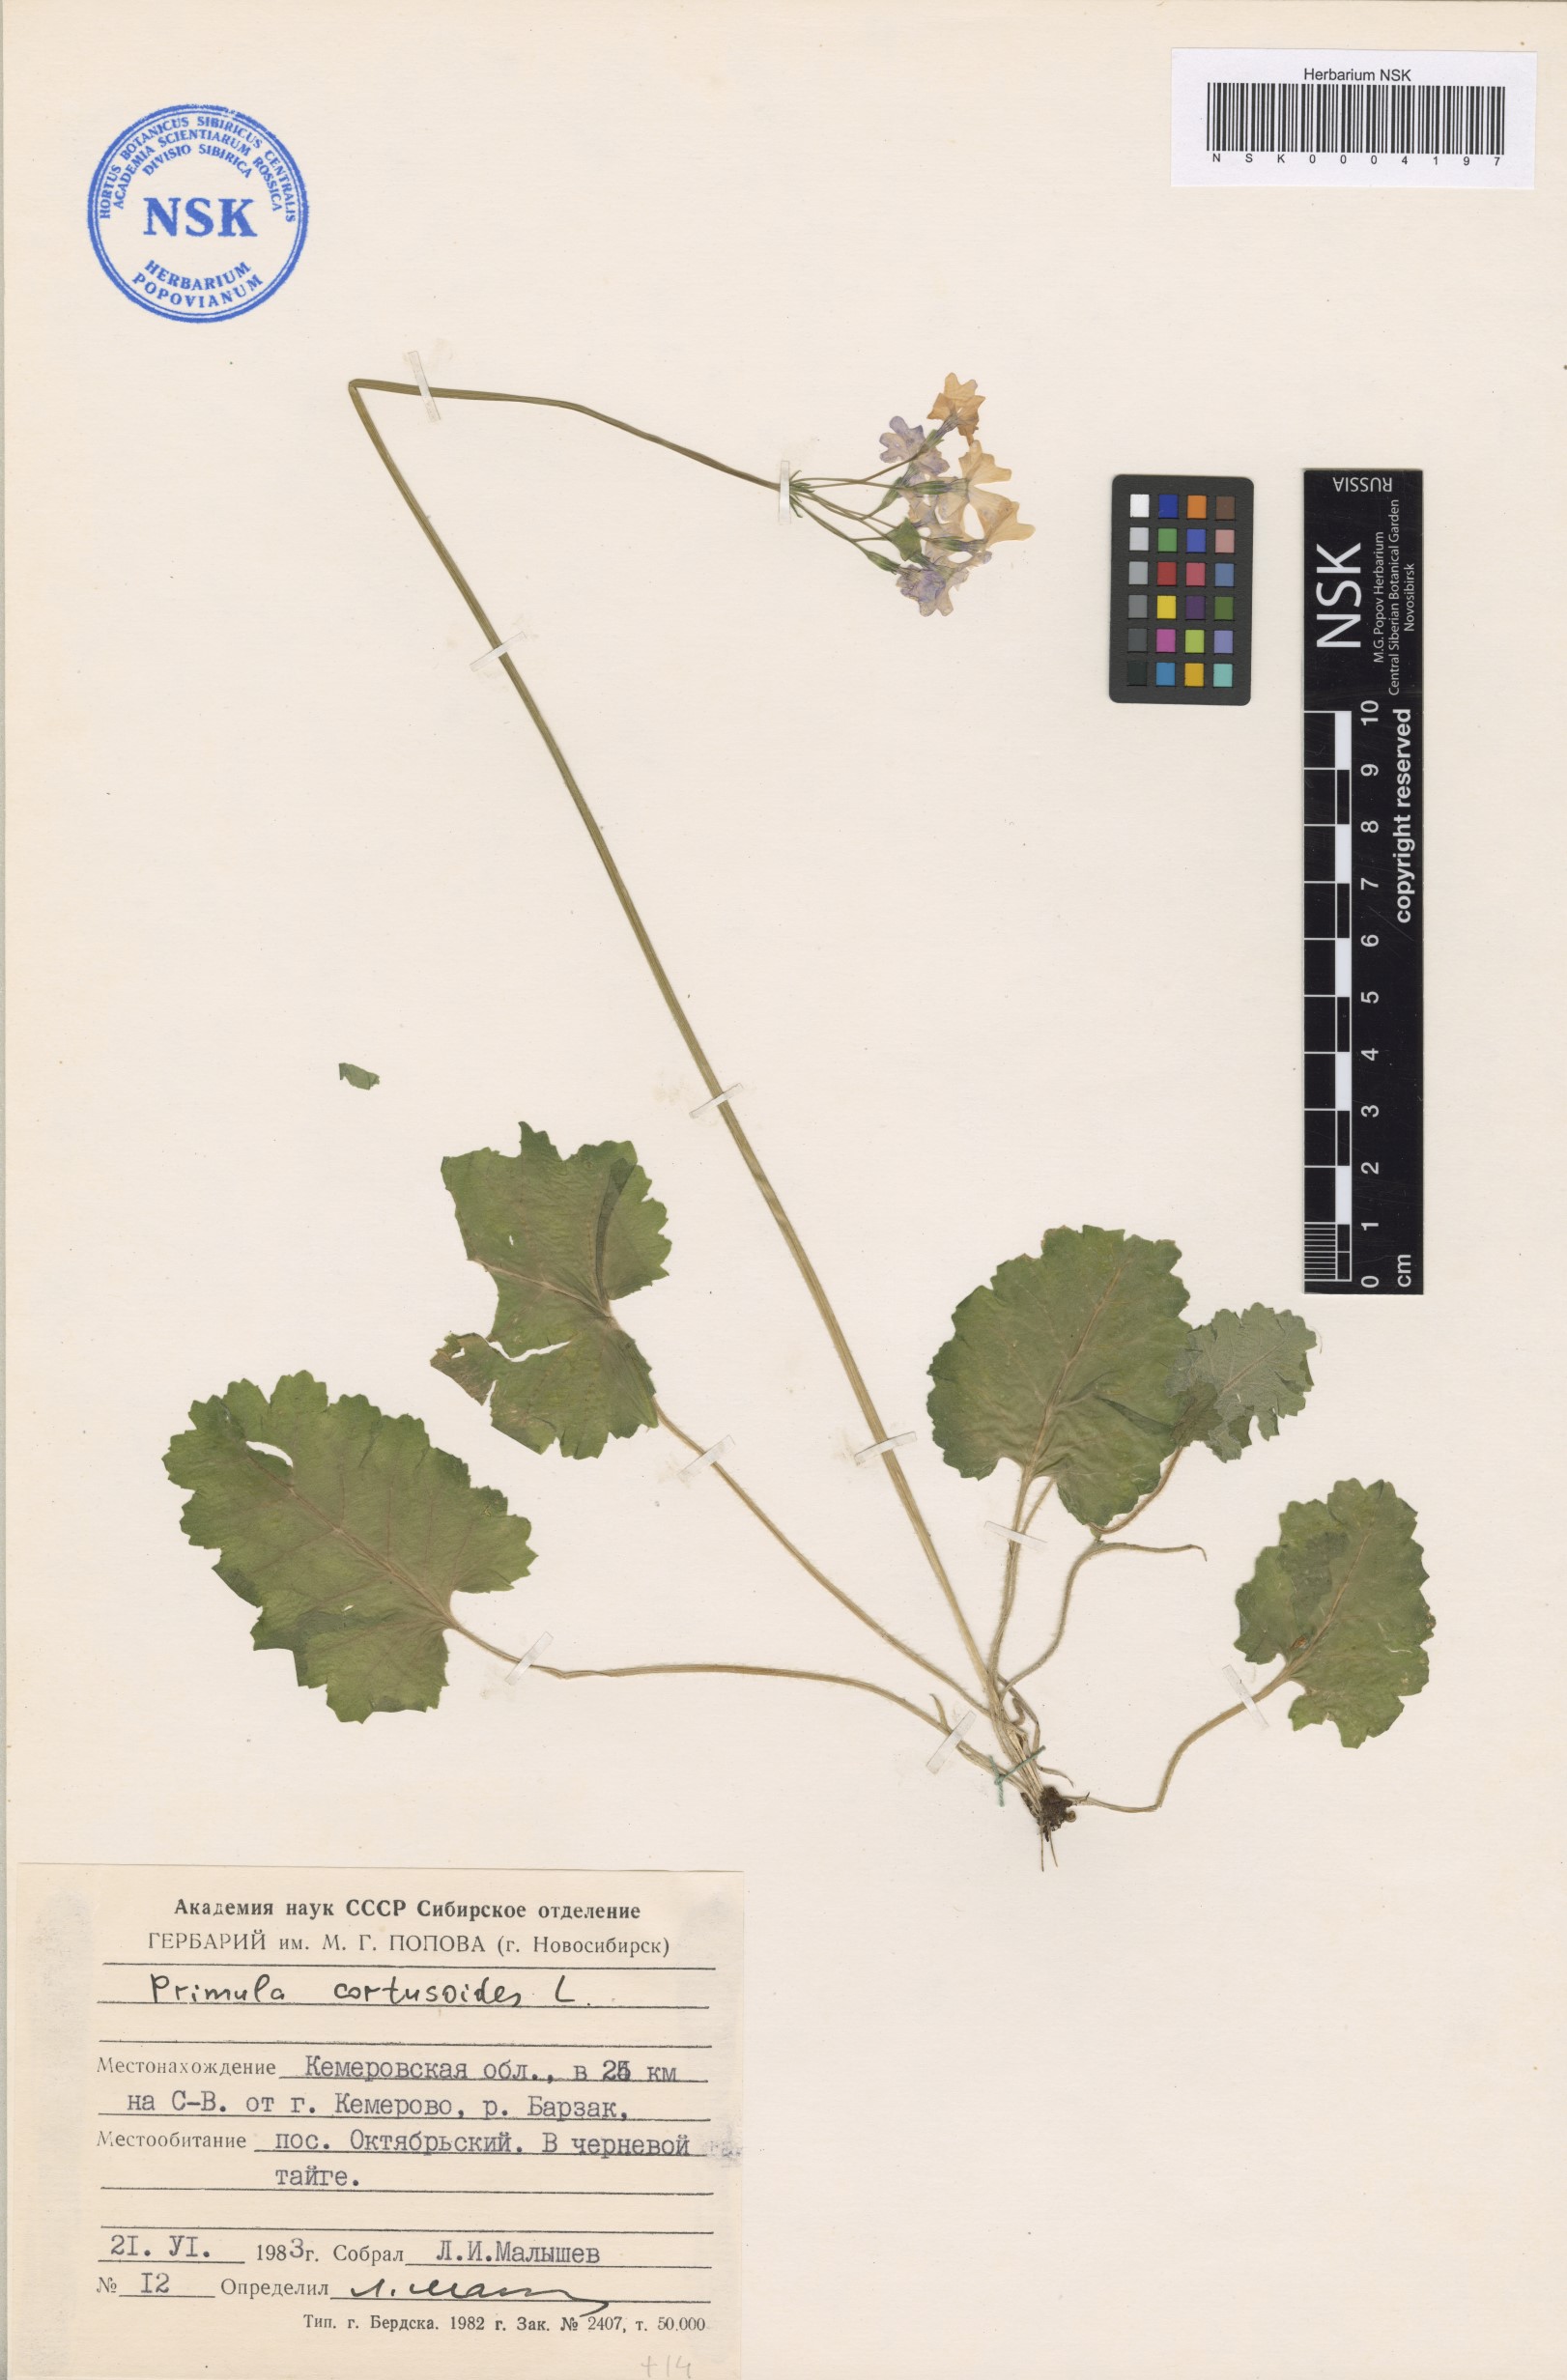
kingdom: Plantae
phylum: Tracheophyta
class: Magnoliopsida
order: Ericales
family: Primulaceae
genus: Primula
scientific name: Primula cortusoides
